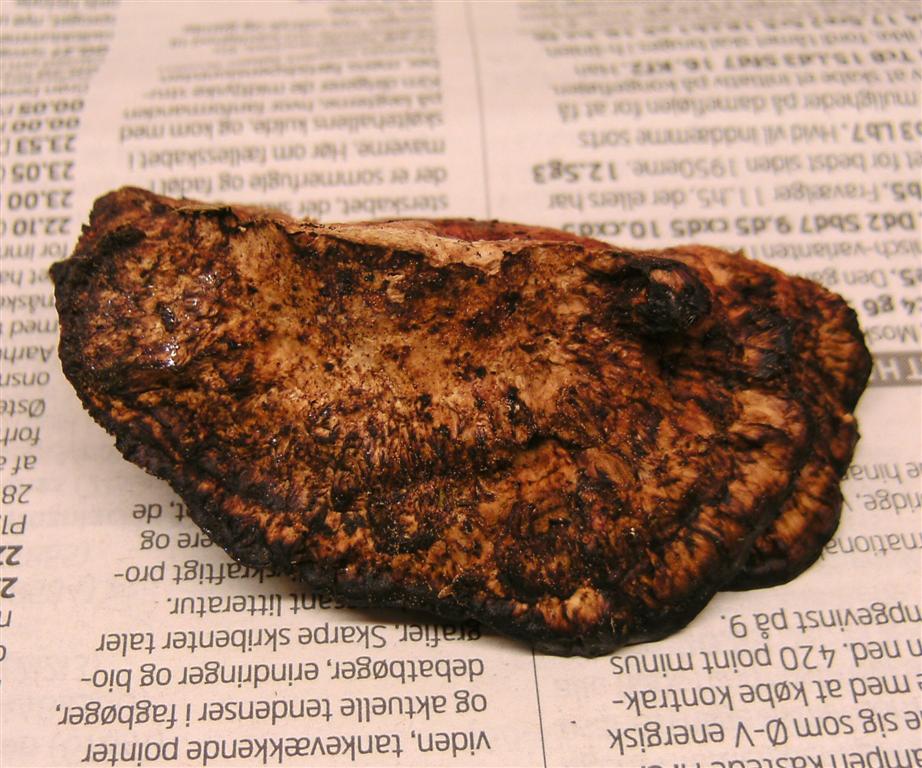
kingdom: Fungi
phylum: Basidiomycota
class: Agaricomycetes
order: Polyporales
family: Polyporaceae
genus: Daedaleopsis
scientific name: Daedaleopsis confragosa
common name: rødmende læderporesvamp
